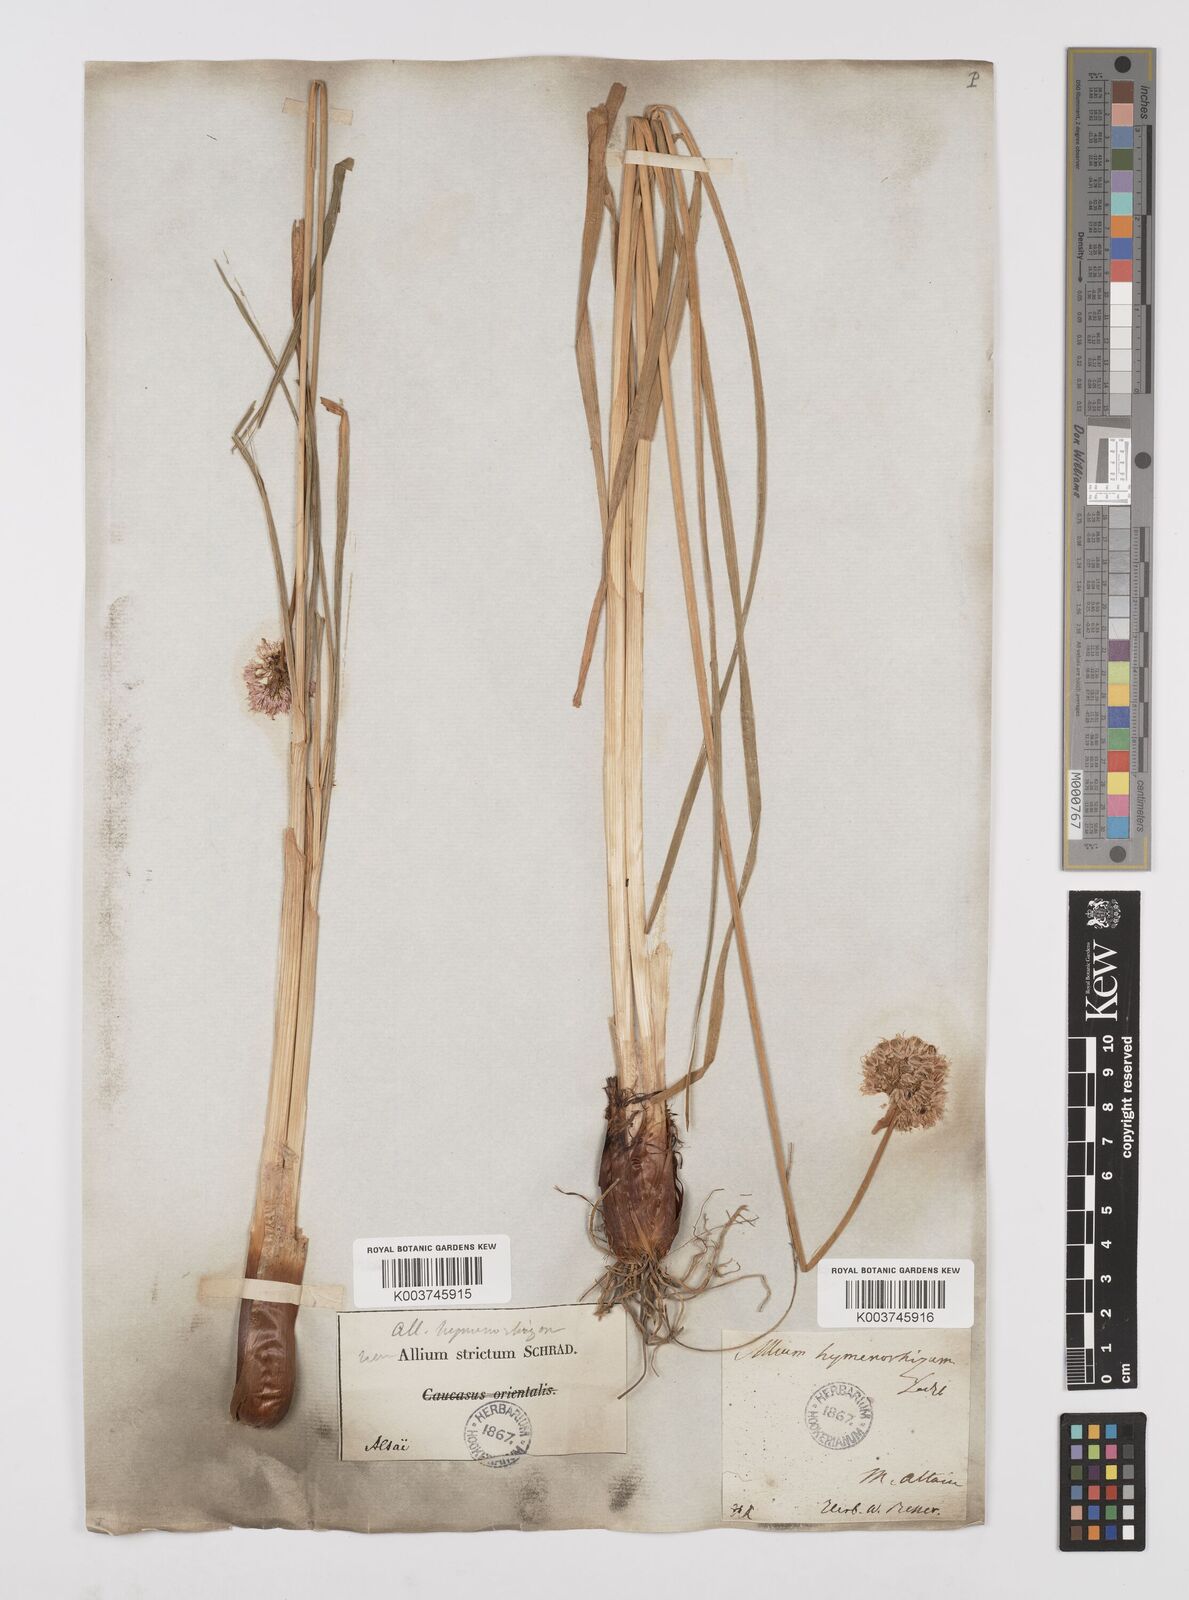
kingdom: Plantae
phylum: Tracheophyta
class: Liliopsida
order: Asparagales
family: Amaryllidaceae
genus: Allium
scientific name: Allium hymenorhizum
